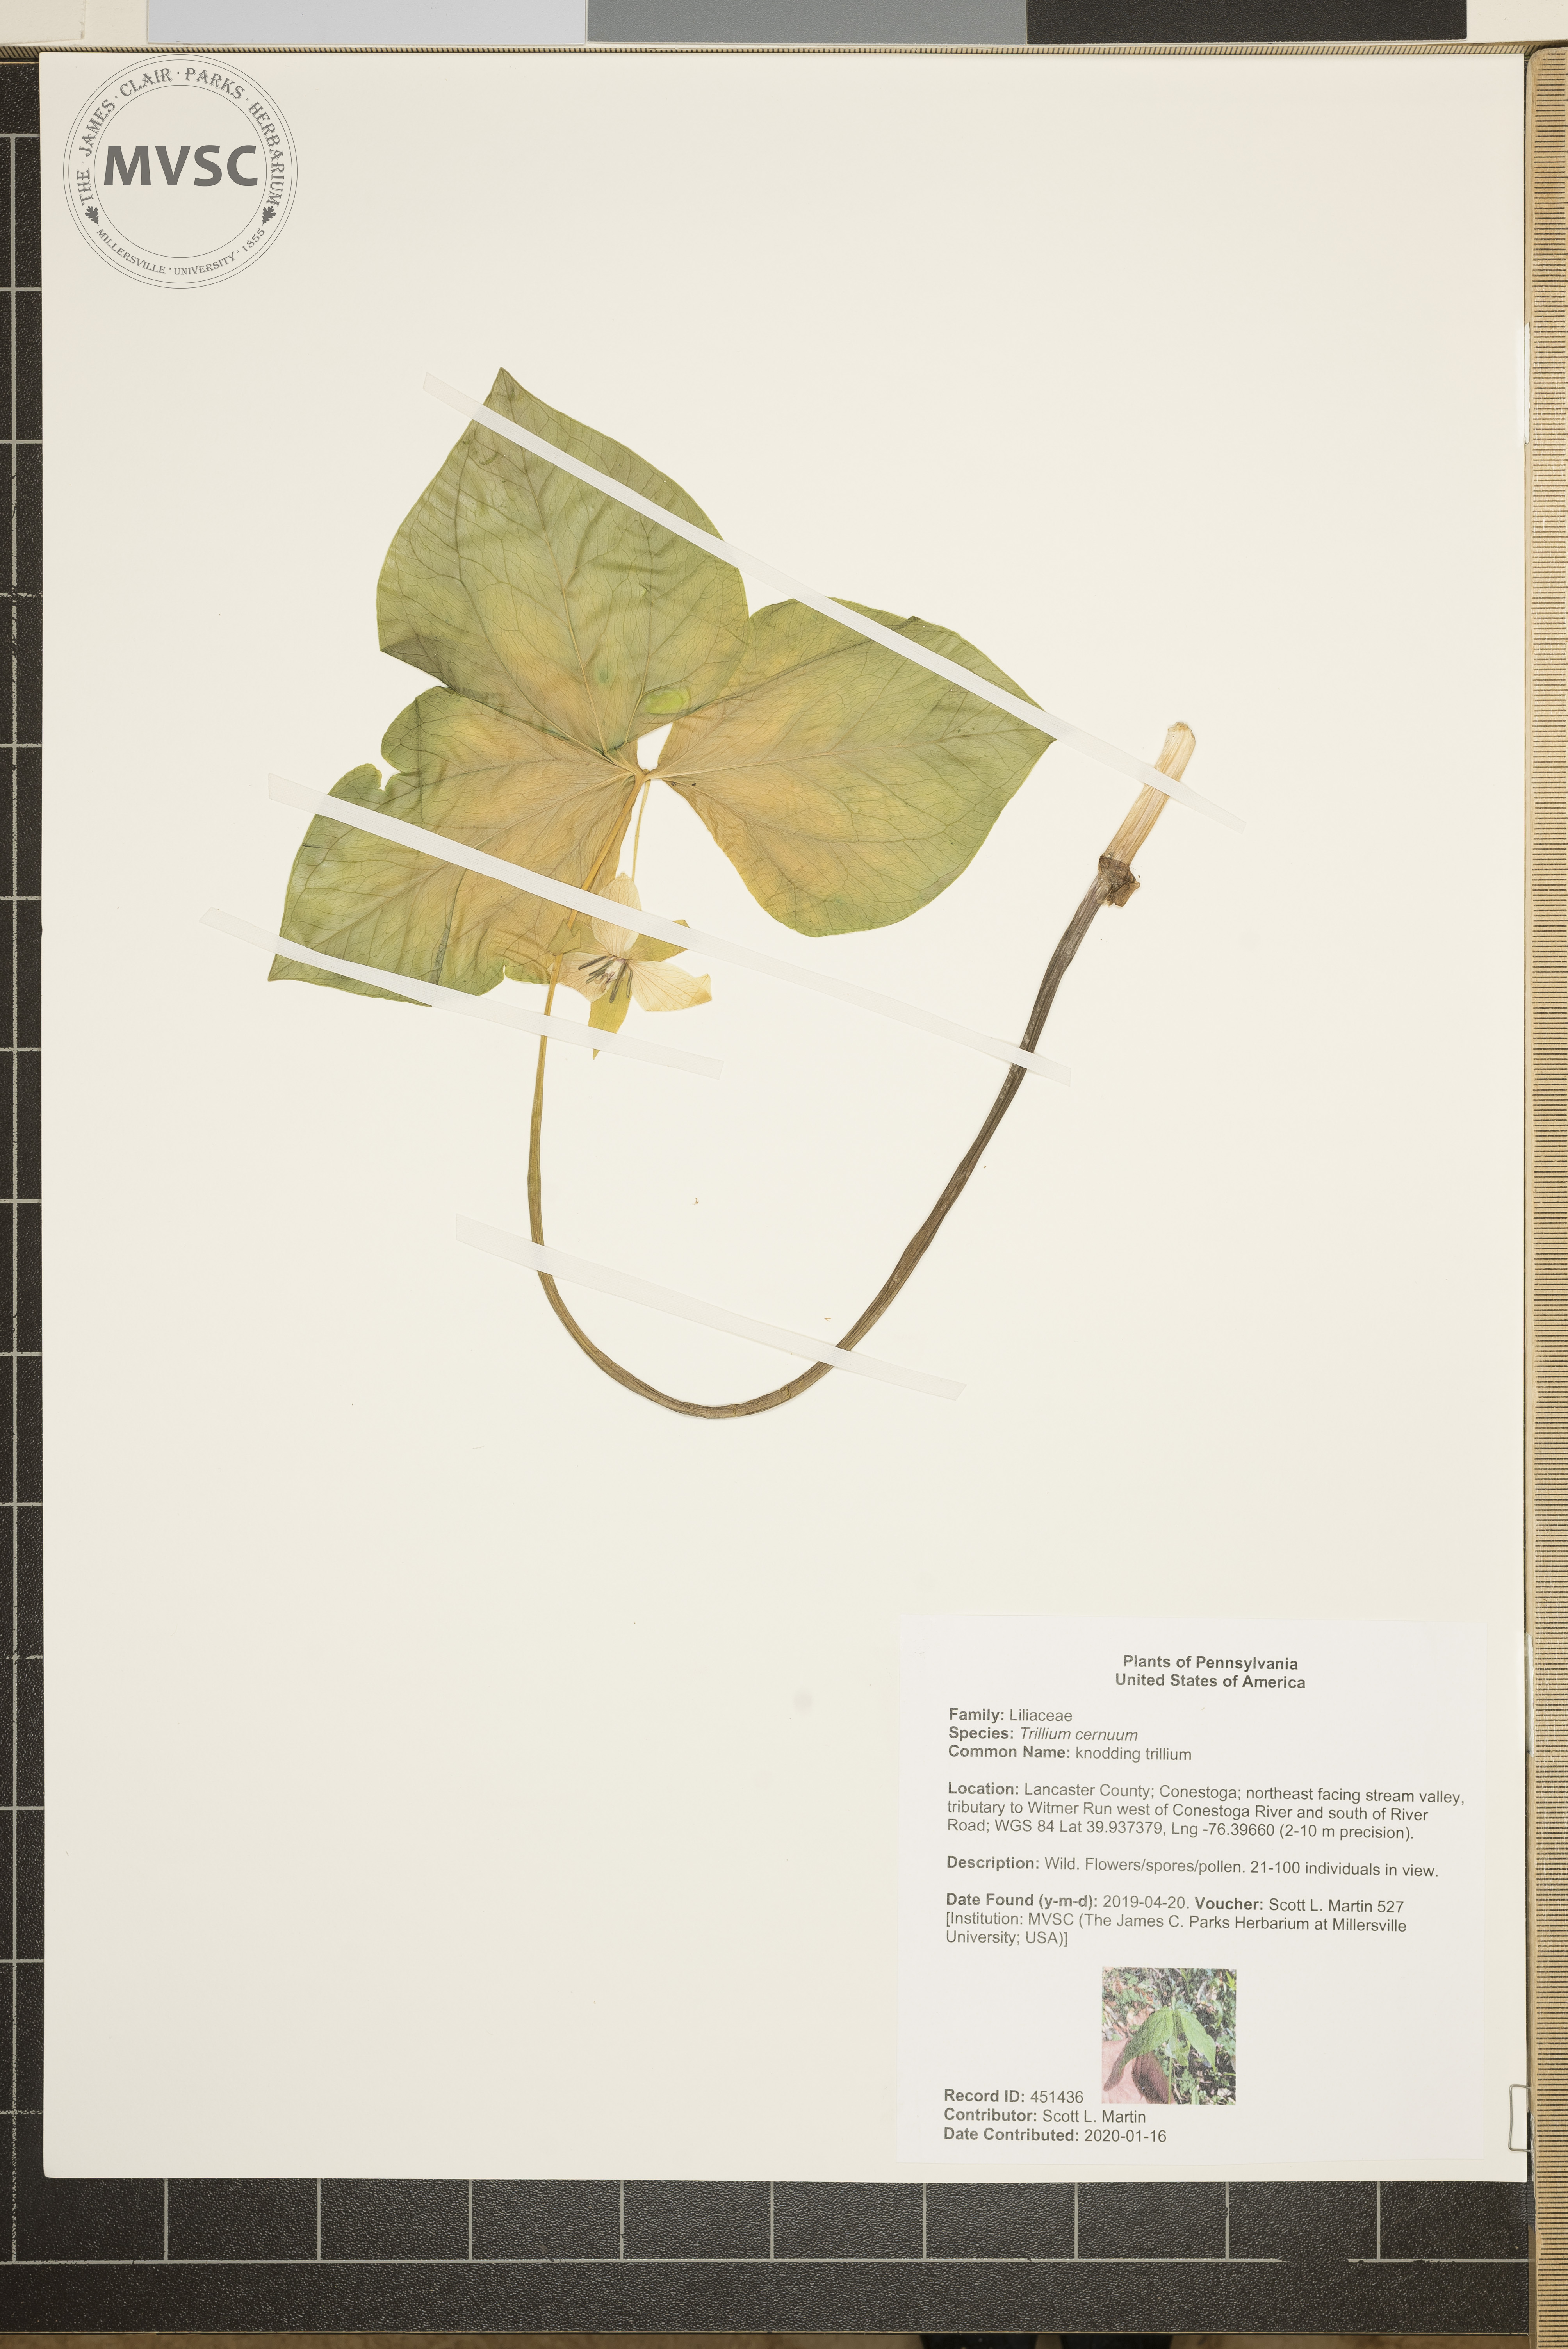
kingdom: Plantae
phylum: Tracheophyta
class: Liliopsida
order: Liliales
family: Melanthiaceae
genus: Trillium
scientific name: Trillium cernuum
